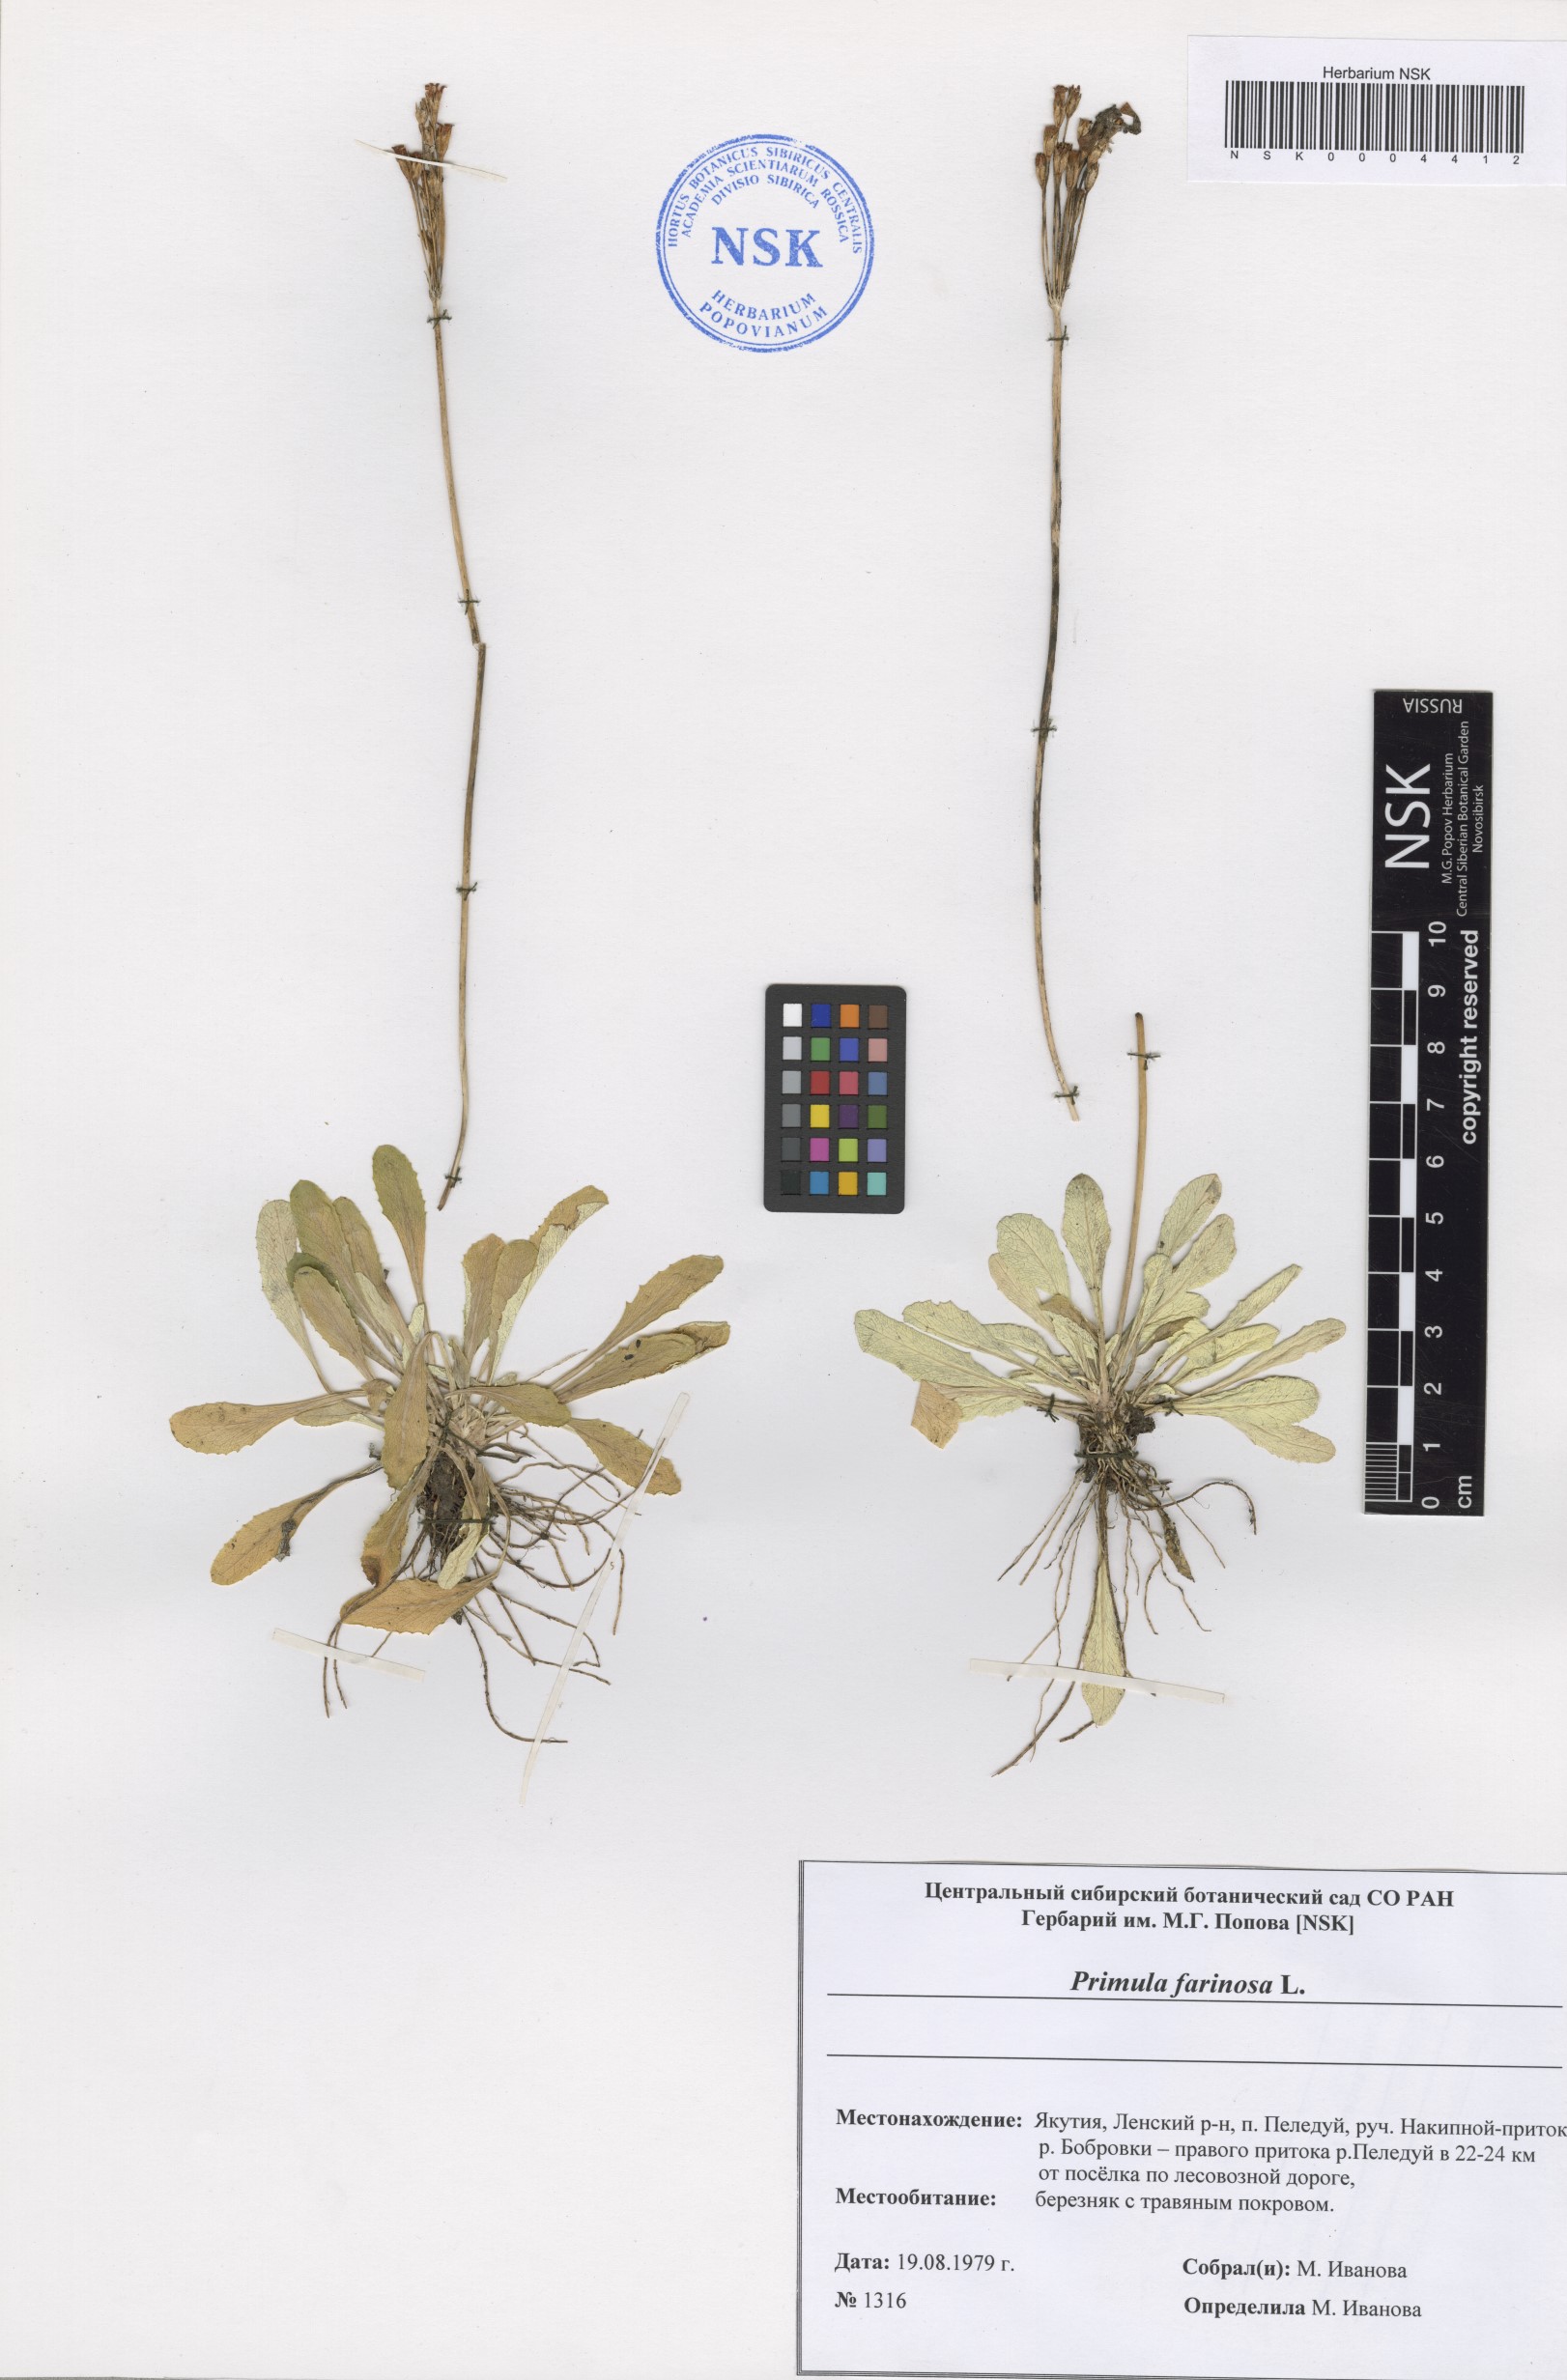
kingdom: Plantae
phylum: Tracheophyta
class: Magnoliopsida
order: Ericales
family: Primulaceae
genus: Primula
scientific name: Primula farinosa
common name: Bird's-eye primrose
